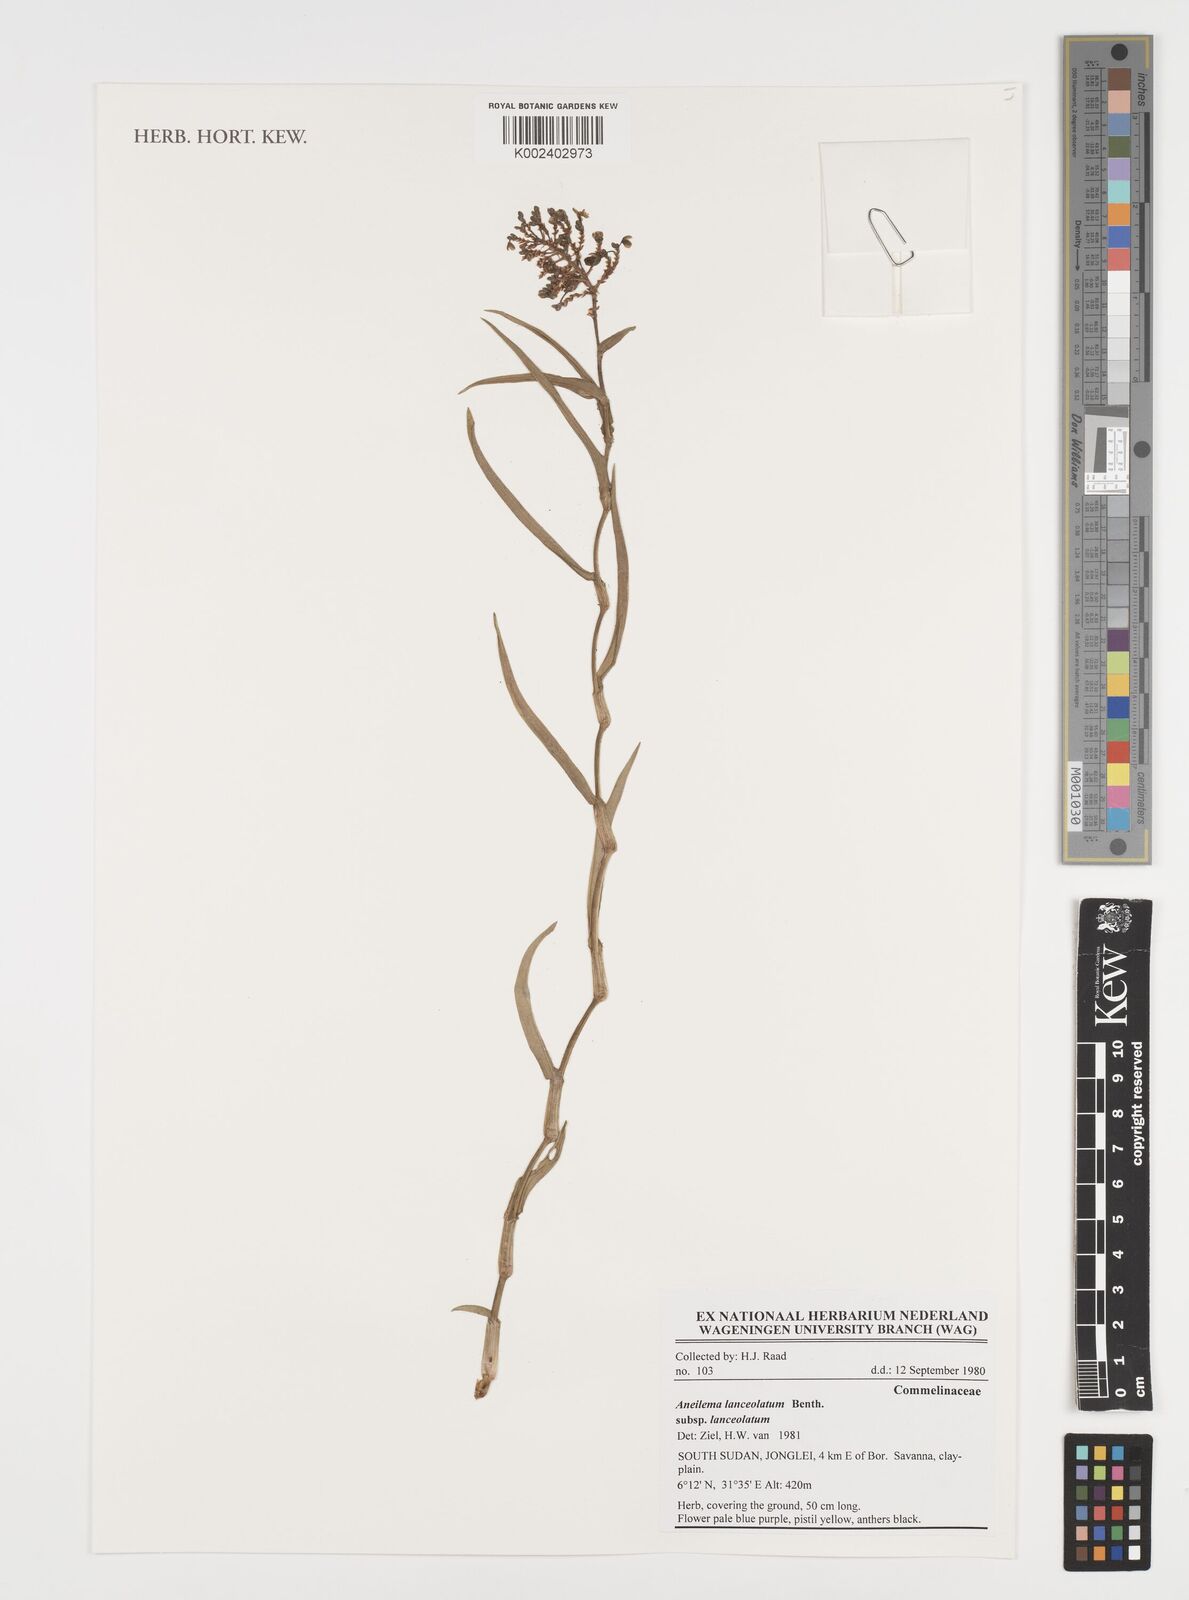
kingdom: Plantae
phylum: Tracheophyta
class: Liliopsida
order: Commelinales
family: Commelinaceae
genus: Aneilema
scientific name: Aneilema lanceolatum
